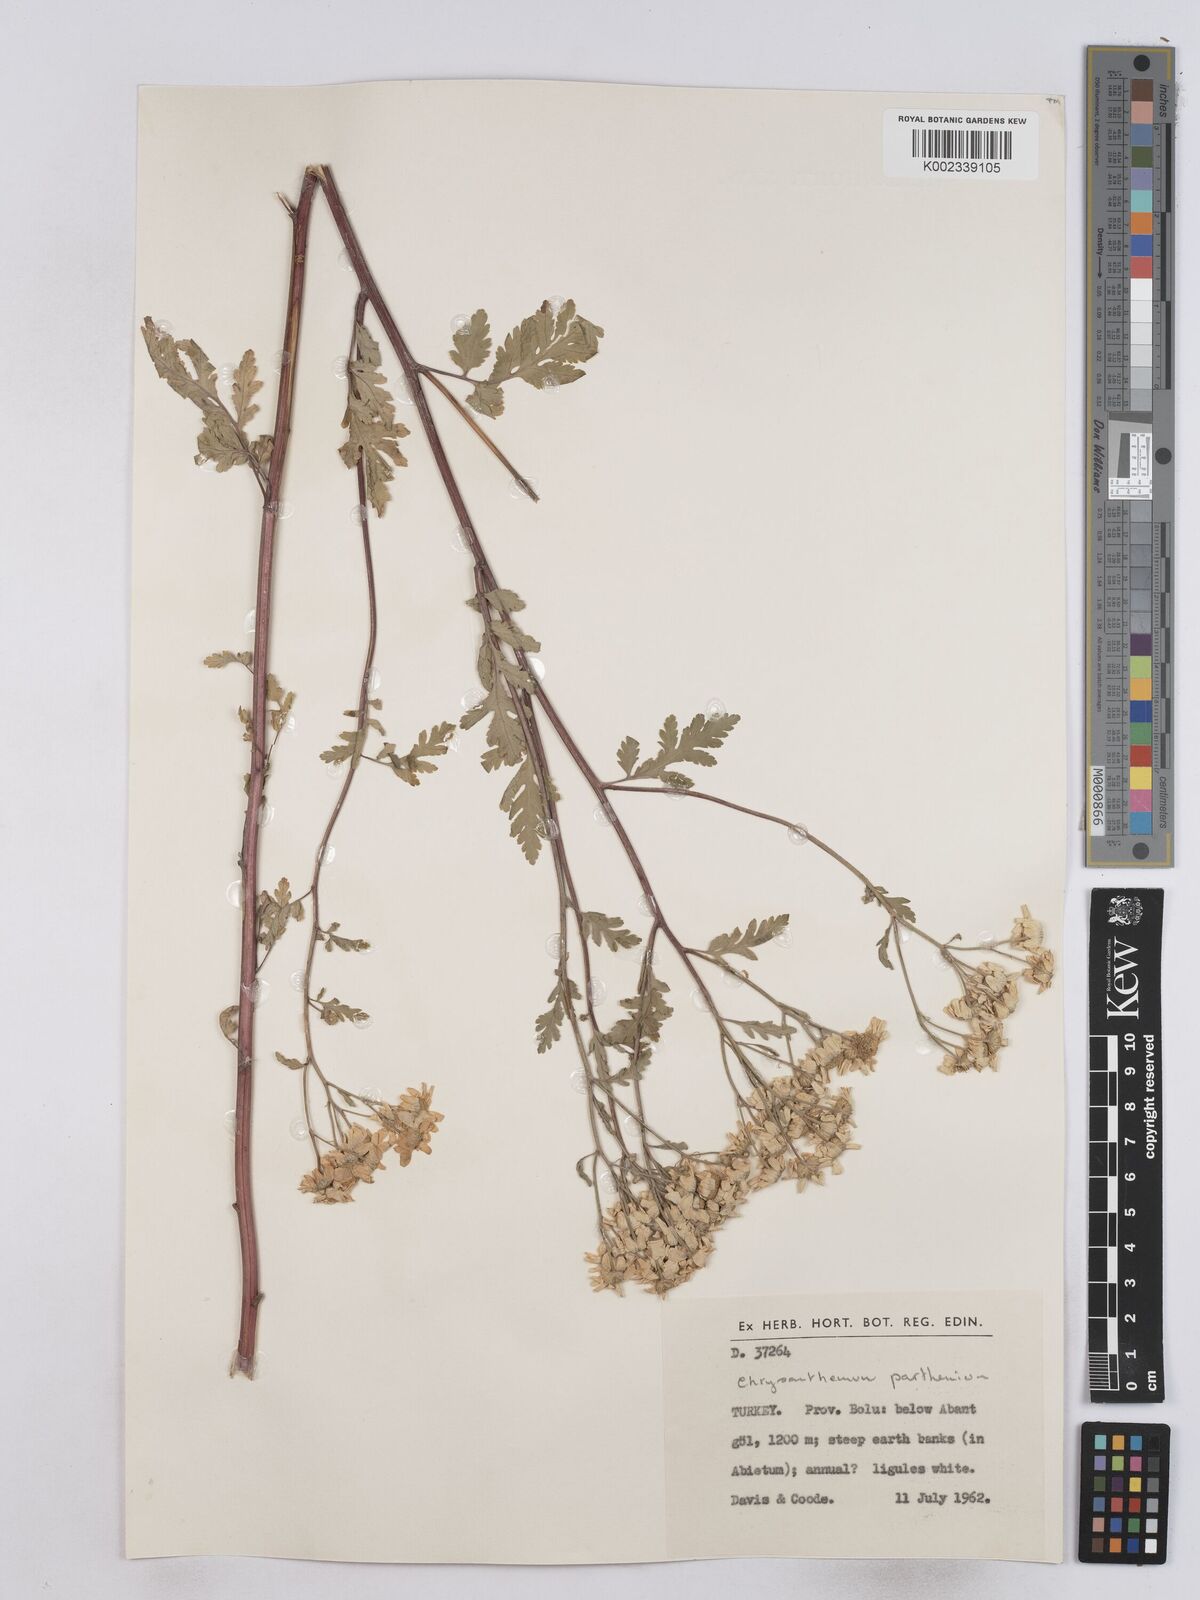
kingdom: Plantae
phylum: Tracheophyta
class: Magnoliopsida
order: Asterales
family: Asteraceae
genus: Tanacetum
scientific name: Tanacetum parthenium
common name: Feverfew
